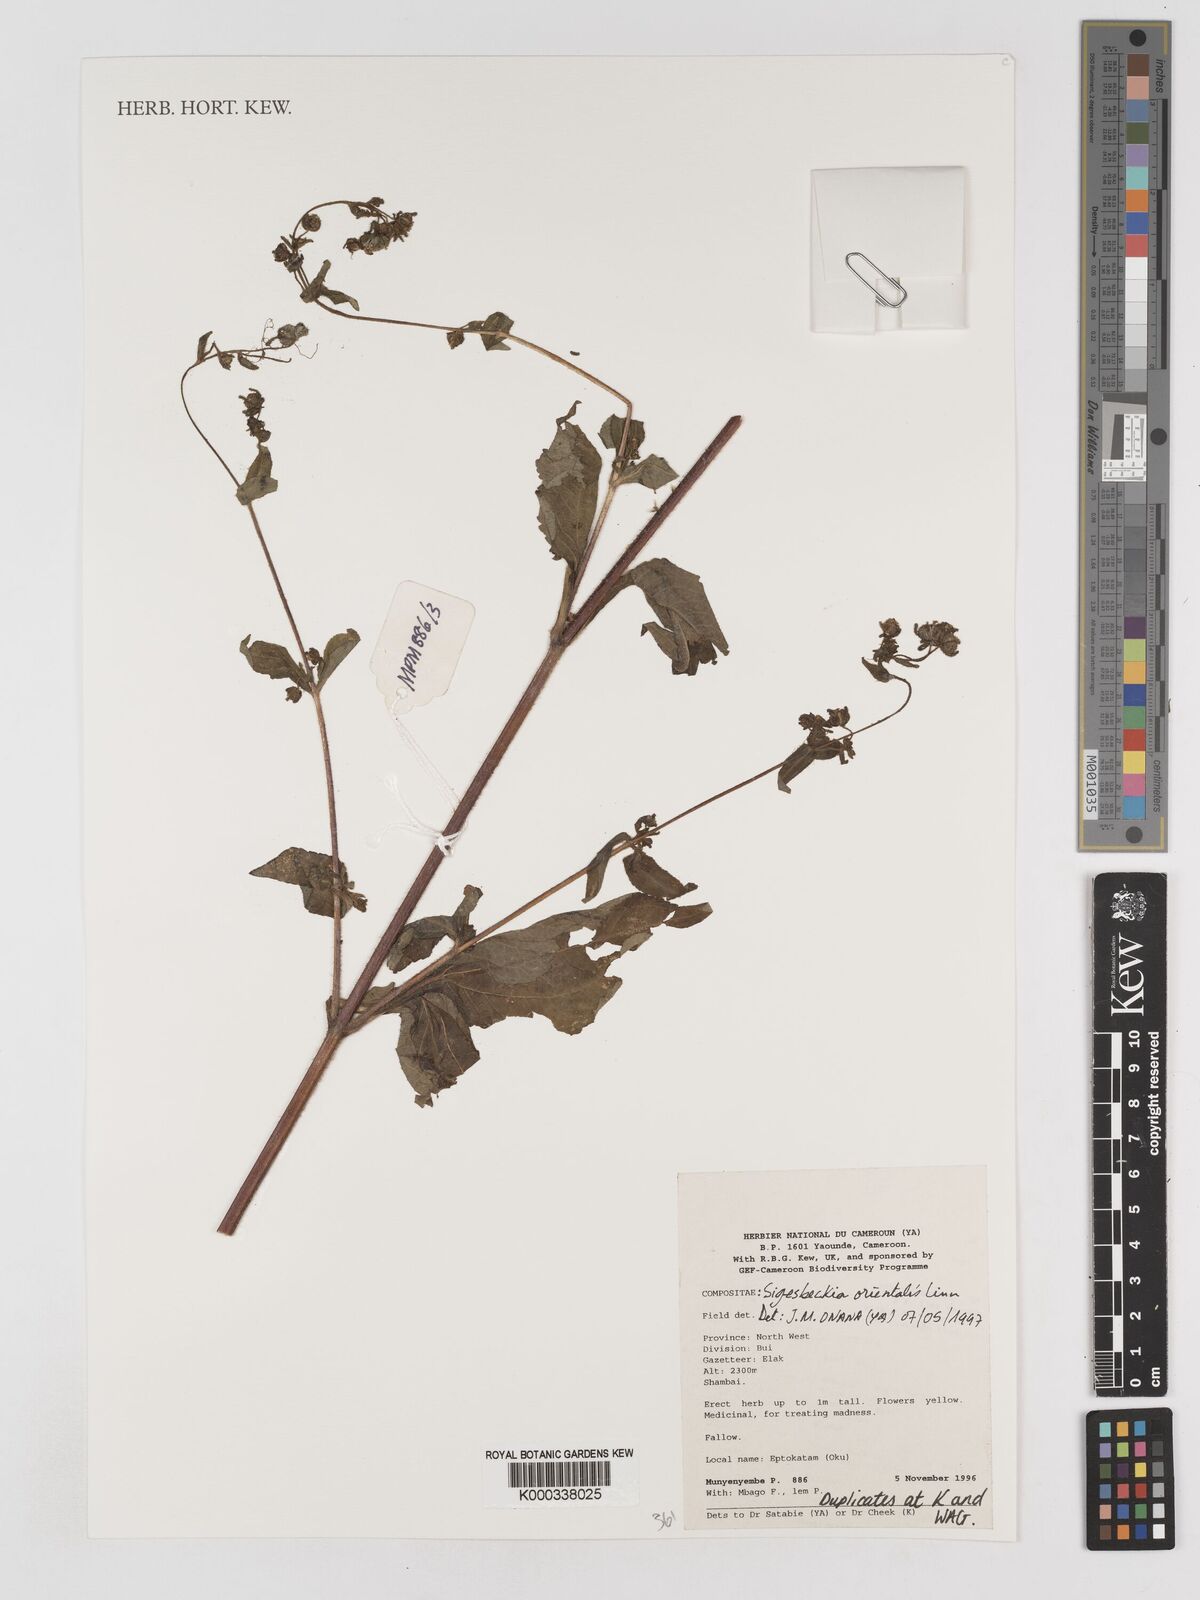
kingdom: Plantae
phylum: Tracheophyta
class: Magnoliopsida
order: Asterales
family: Asteraceae
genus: Sigesbeckia
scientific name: Sigesbeckia
